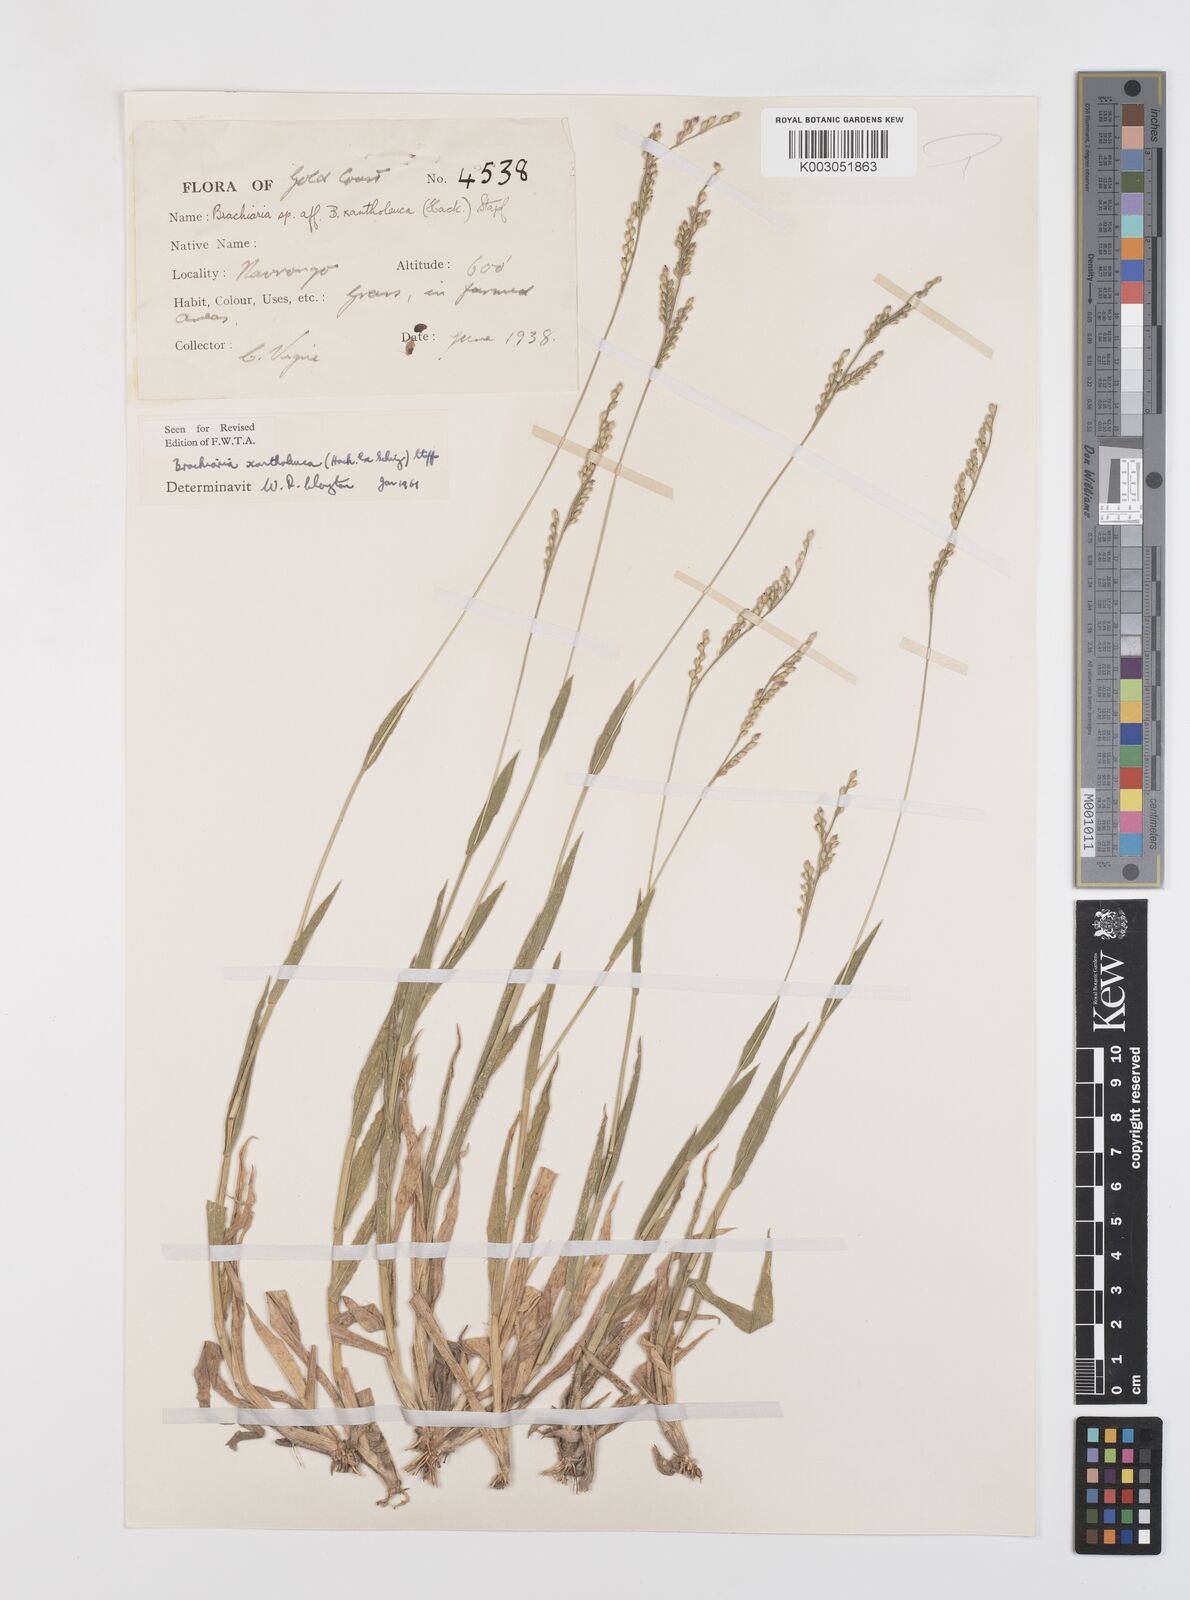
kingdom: Plantae
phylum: Tracheophyta
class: Liliopsida
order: Poales
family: Poaceae
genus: Urochloa
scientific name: Urochloa xantholeuca
